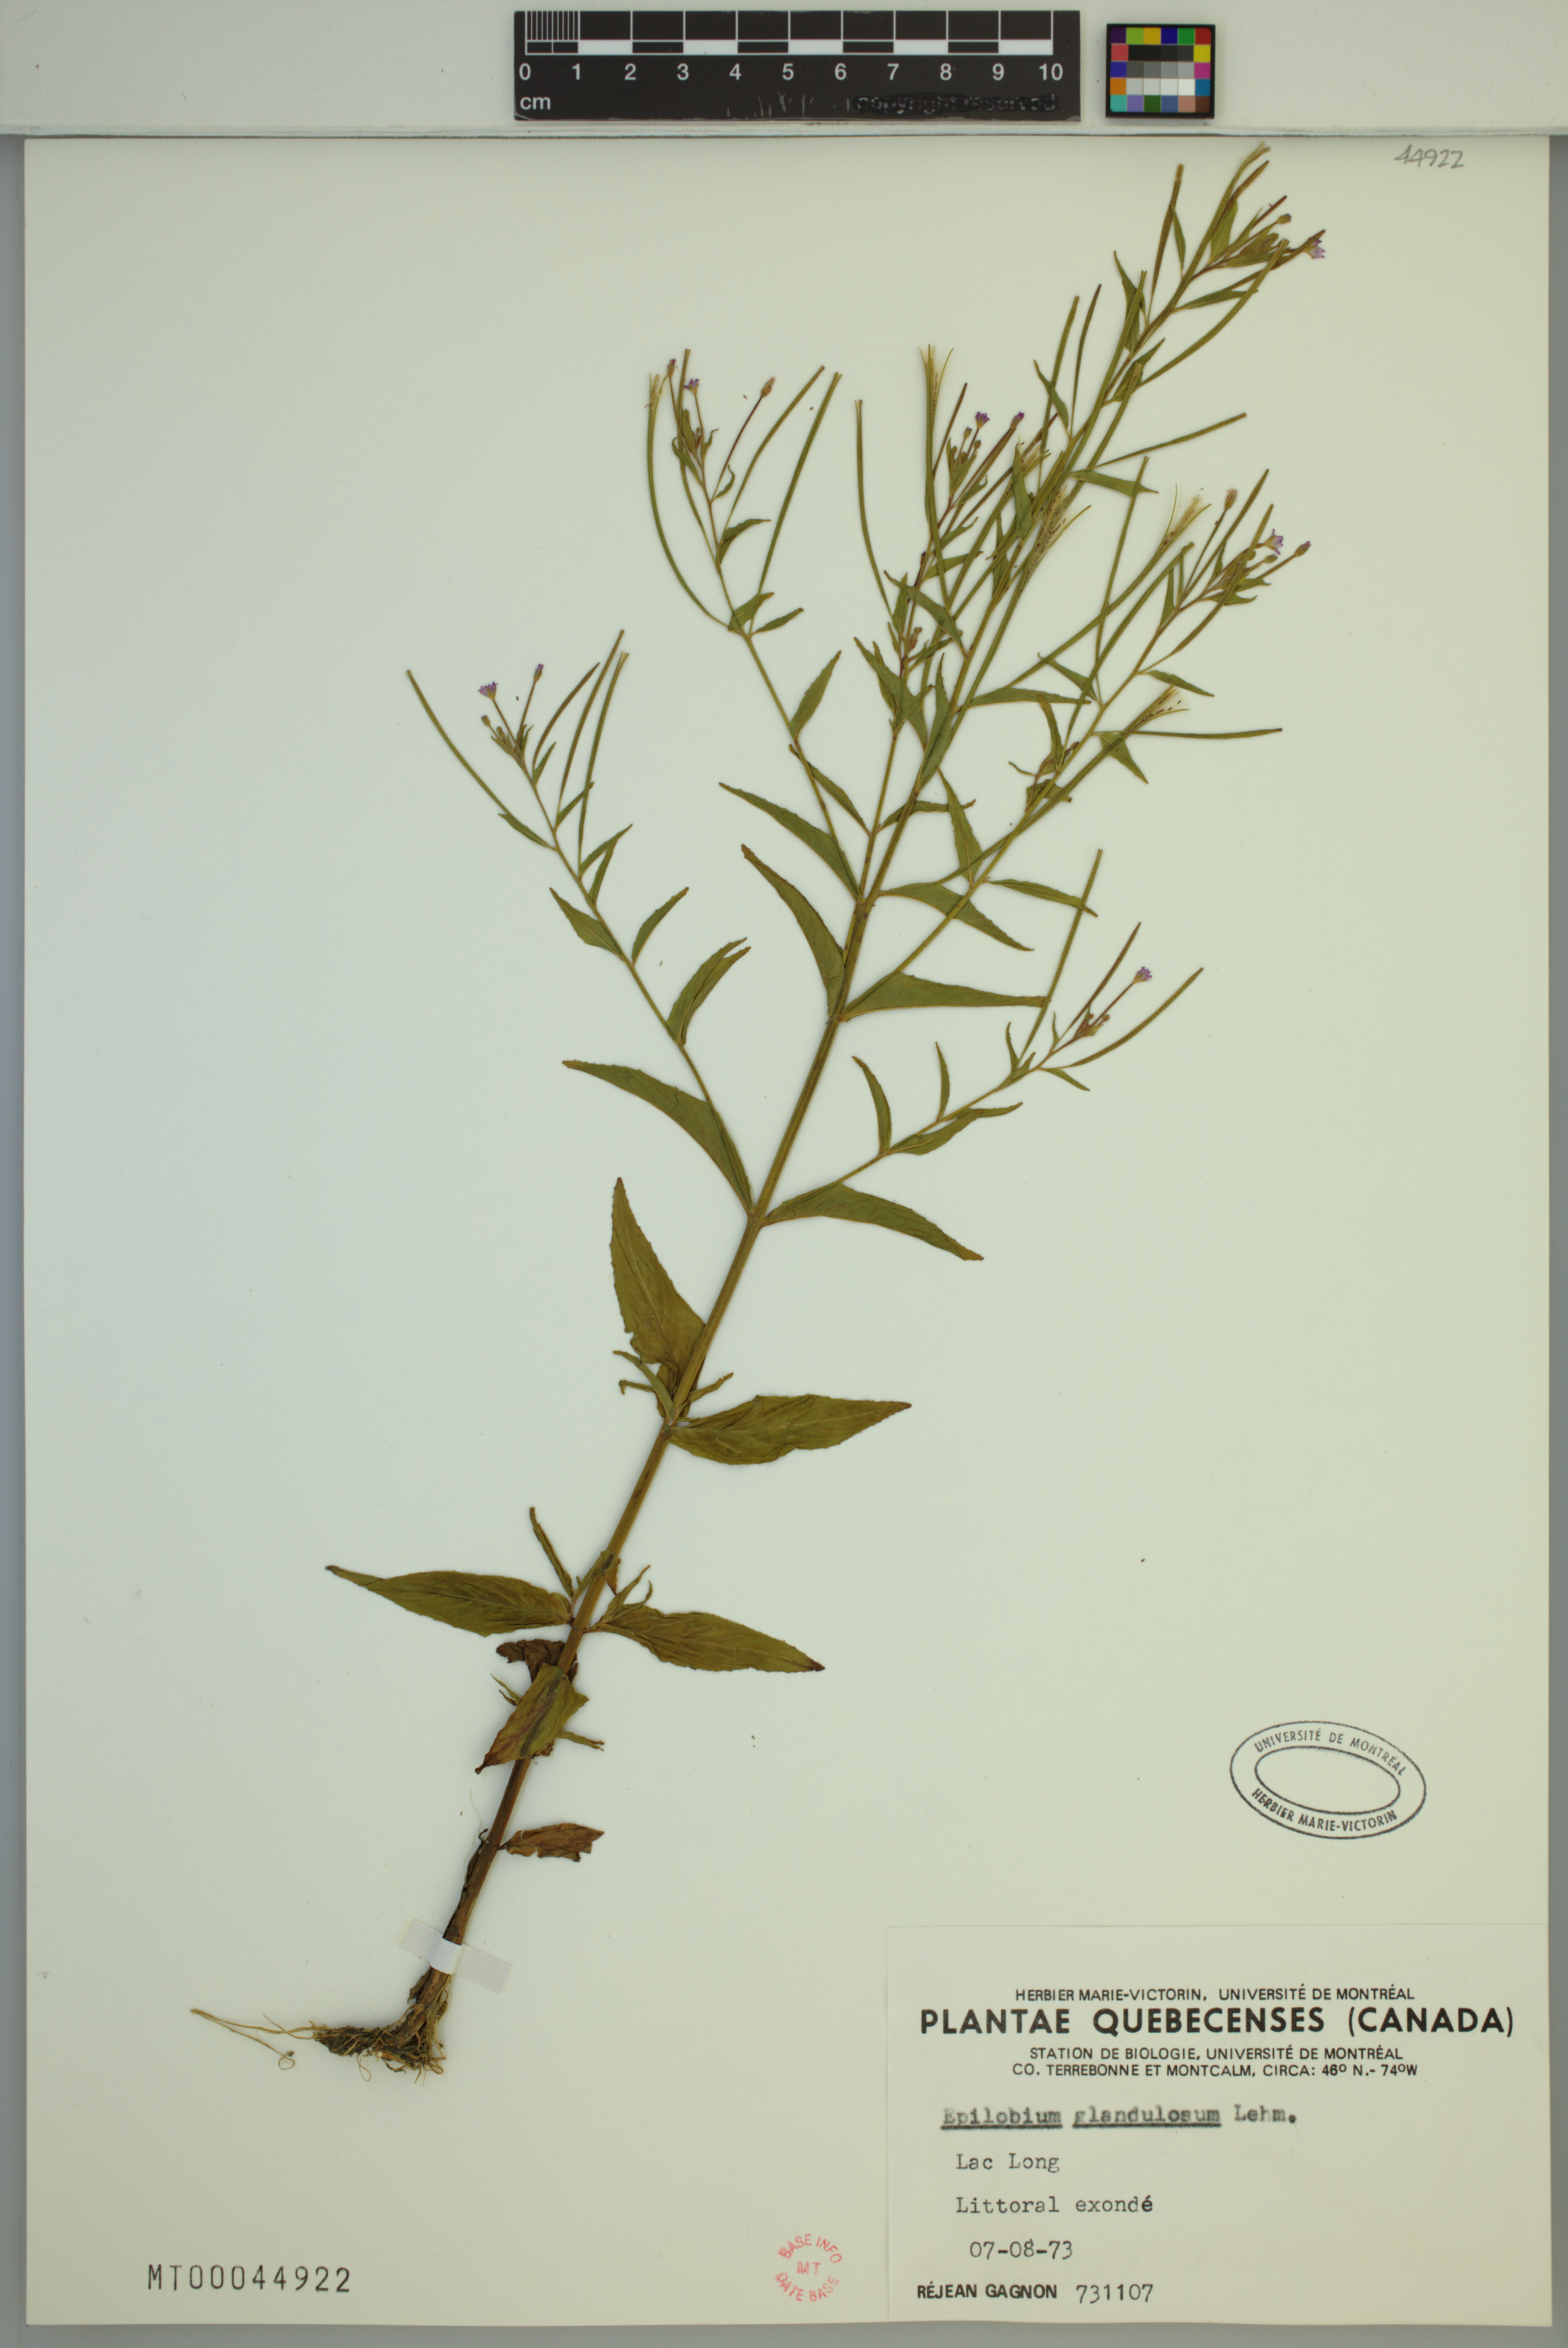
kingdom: Plantae
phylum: Tracheophyta
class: Magnoliopsida
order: Myrtales
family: Onagraceae
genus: Epilobium
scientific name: Epilobium ciliatum
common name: American willowherb
